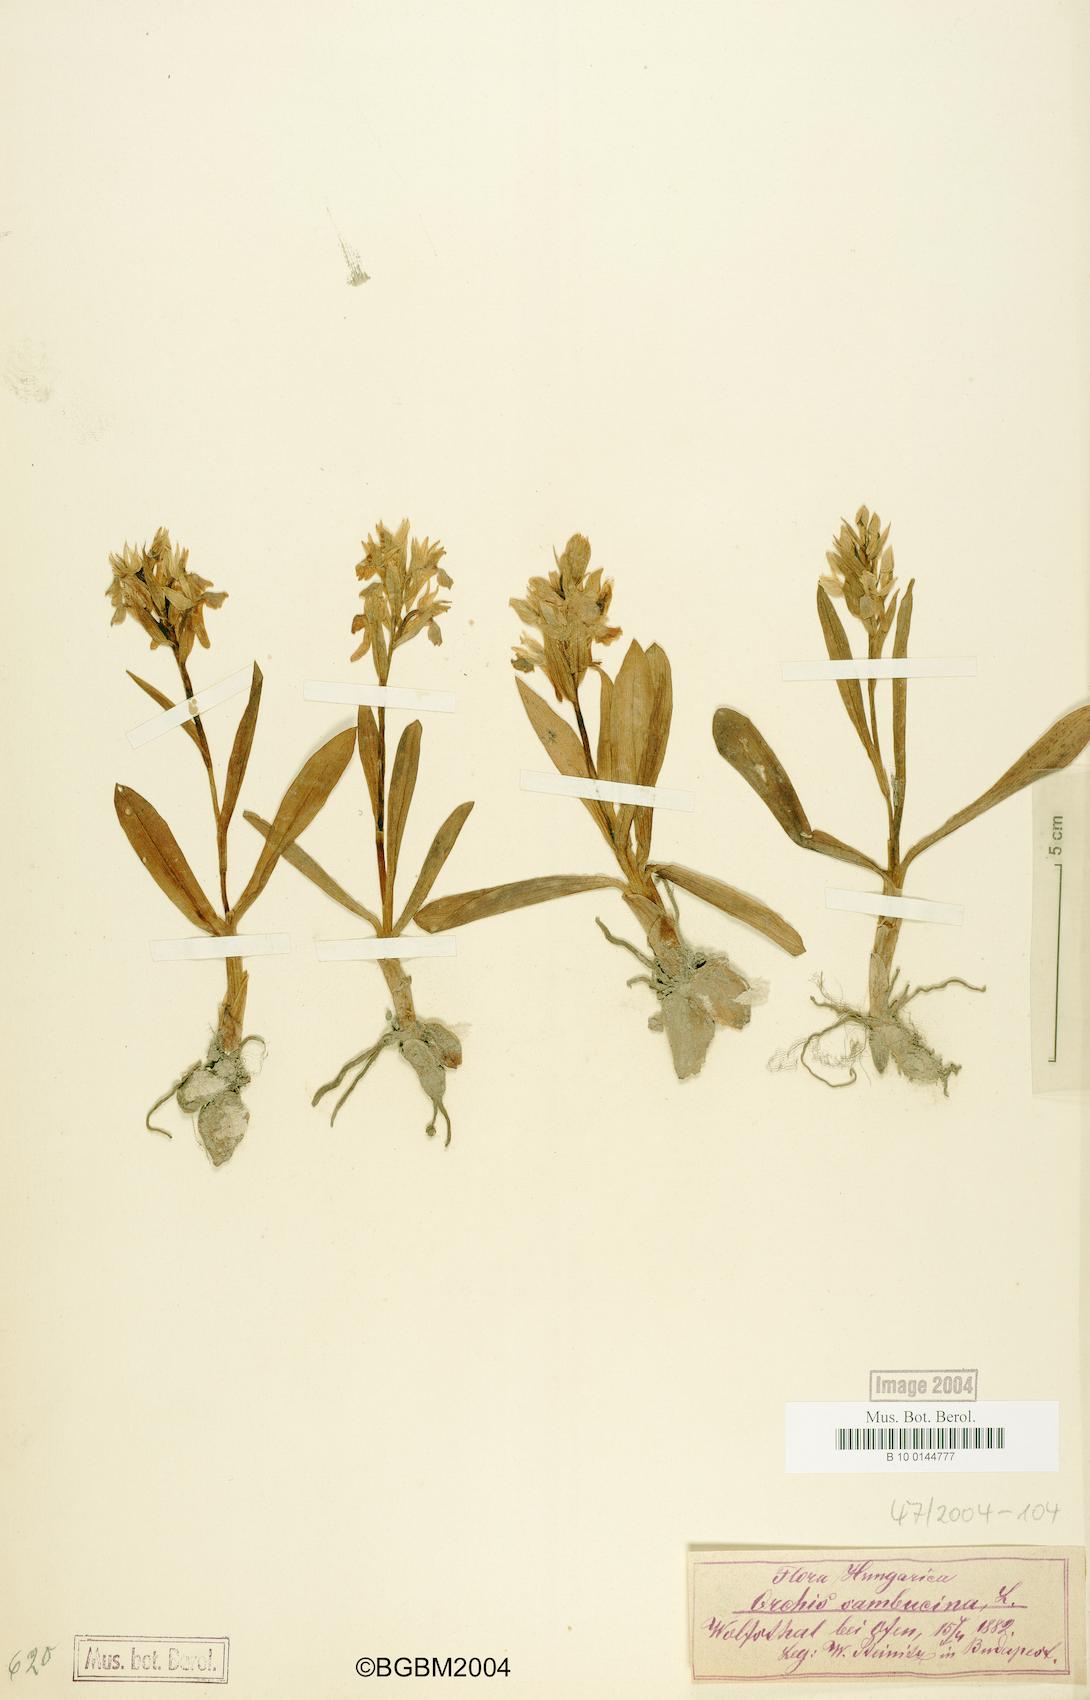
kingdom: Plantae
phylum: Tracheophyta
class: Liliopsida
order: Asparagales
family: Orchidaceae
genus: Dactylorhiza
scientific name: Dactylorhiza sambucina
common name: Elder-flowered orchid
